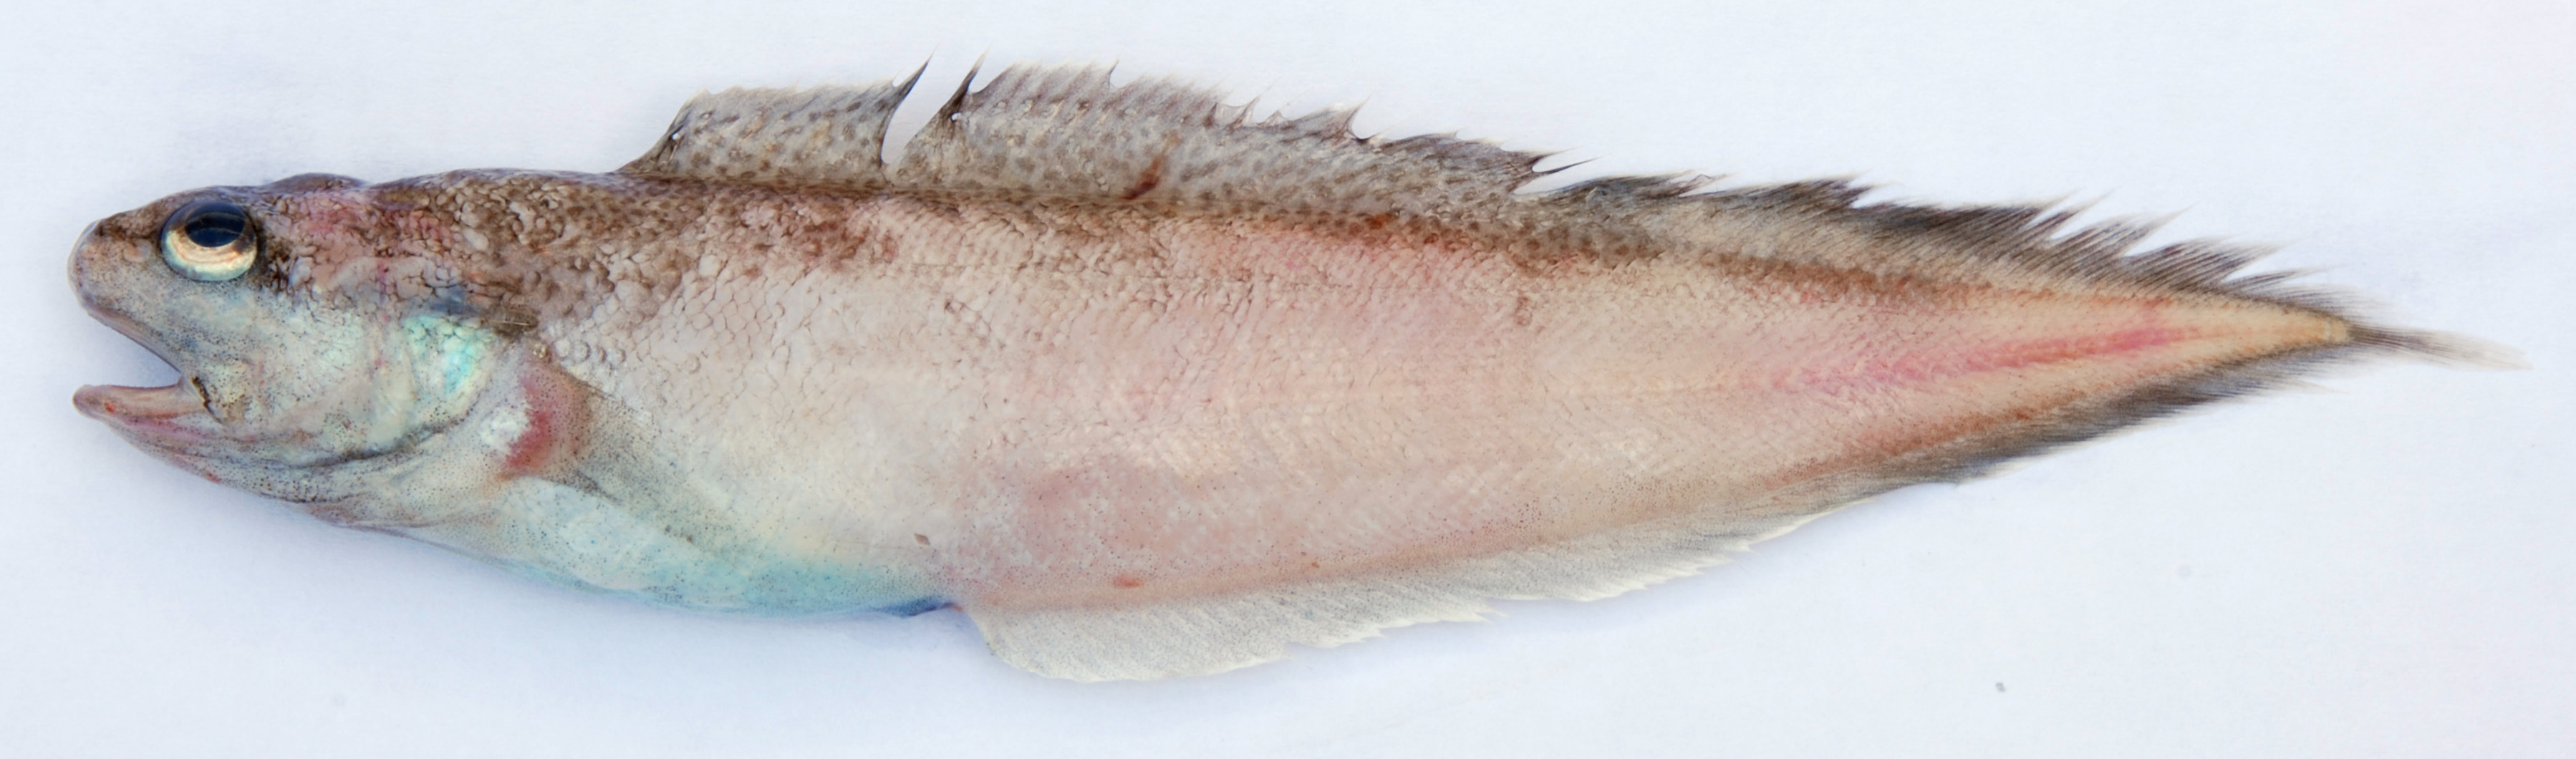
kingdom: Animalia
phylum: Chordata
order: Ophidiiformes
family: Ophidiidae
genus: Neobythites
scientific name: Neobythites vityazi
